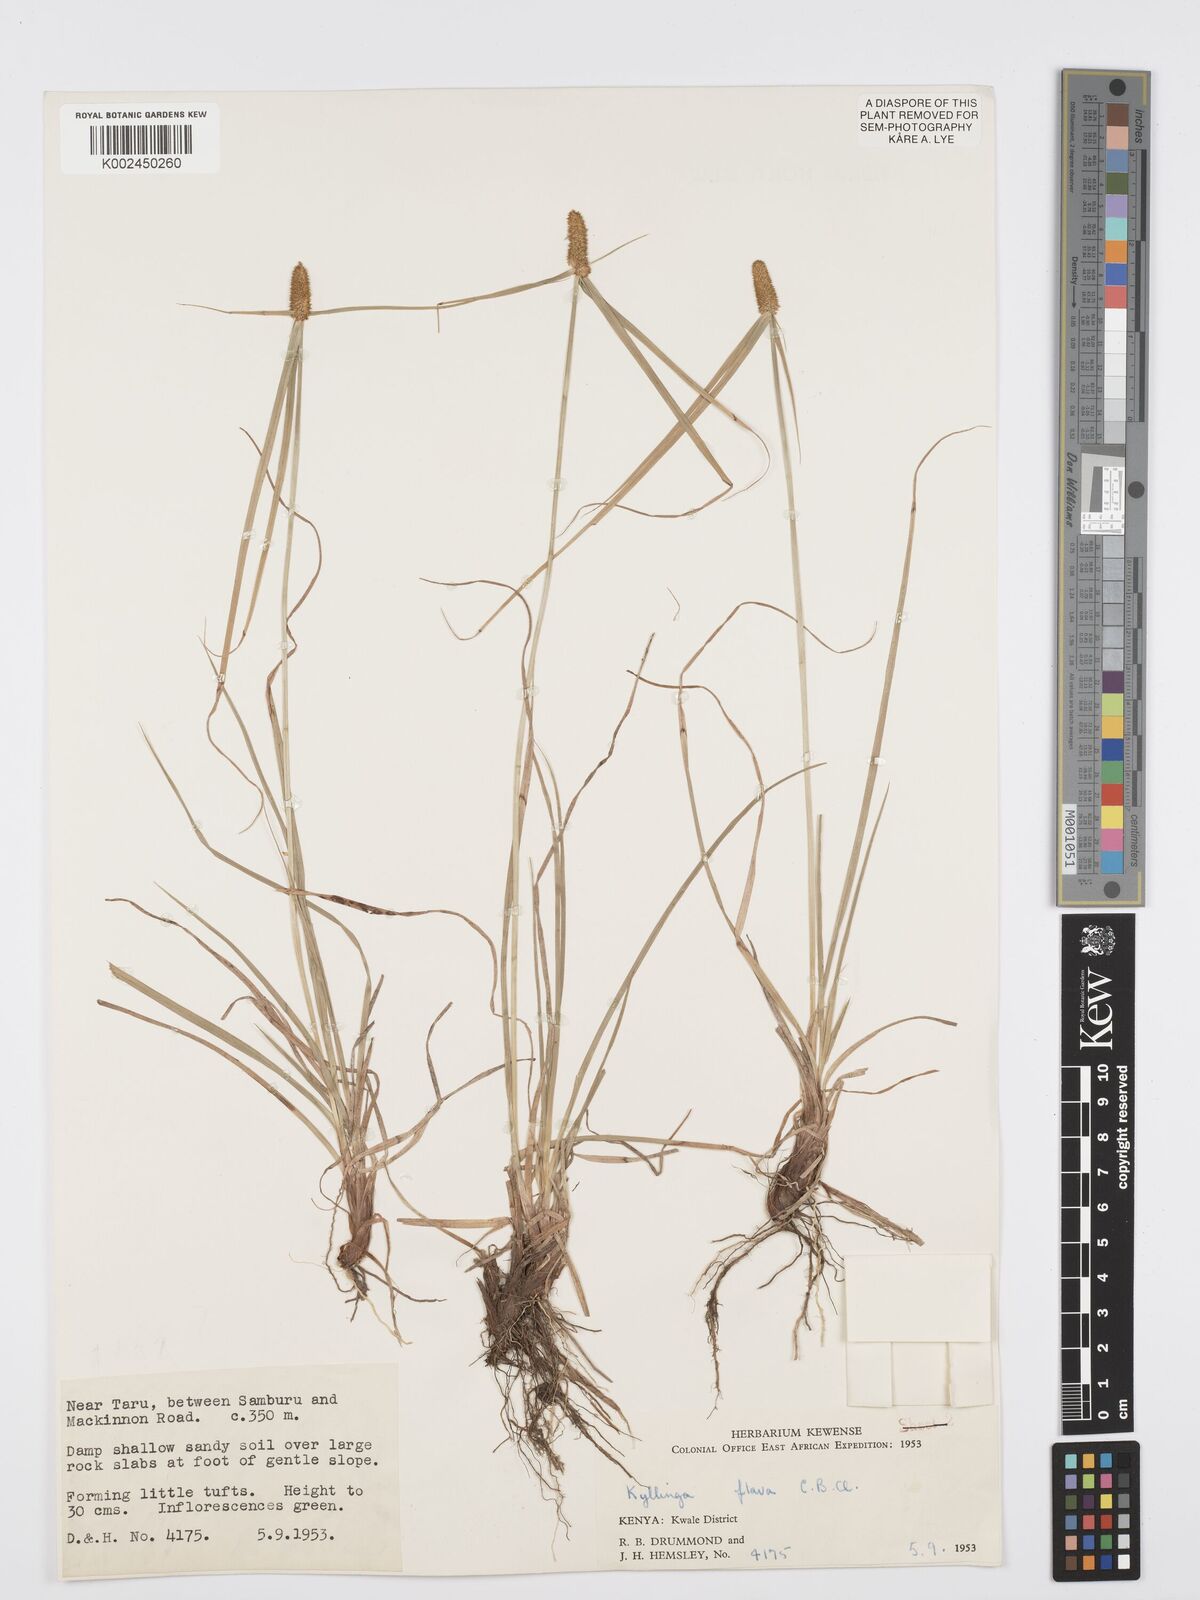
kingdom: Plantae
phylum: Tracheophyta
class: Liliopsida
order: Poales
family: Cyperaceae
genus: Cyperus
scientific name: Cyperus
